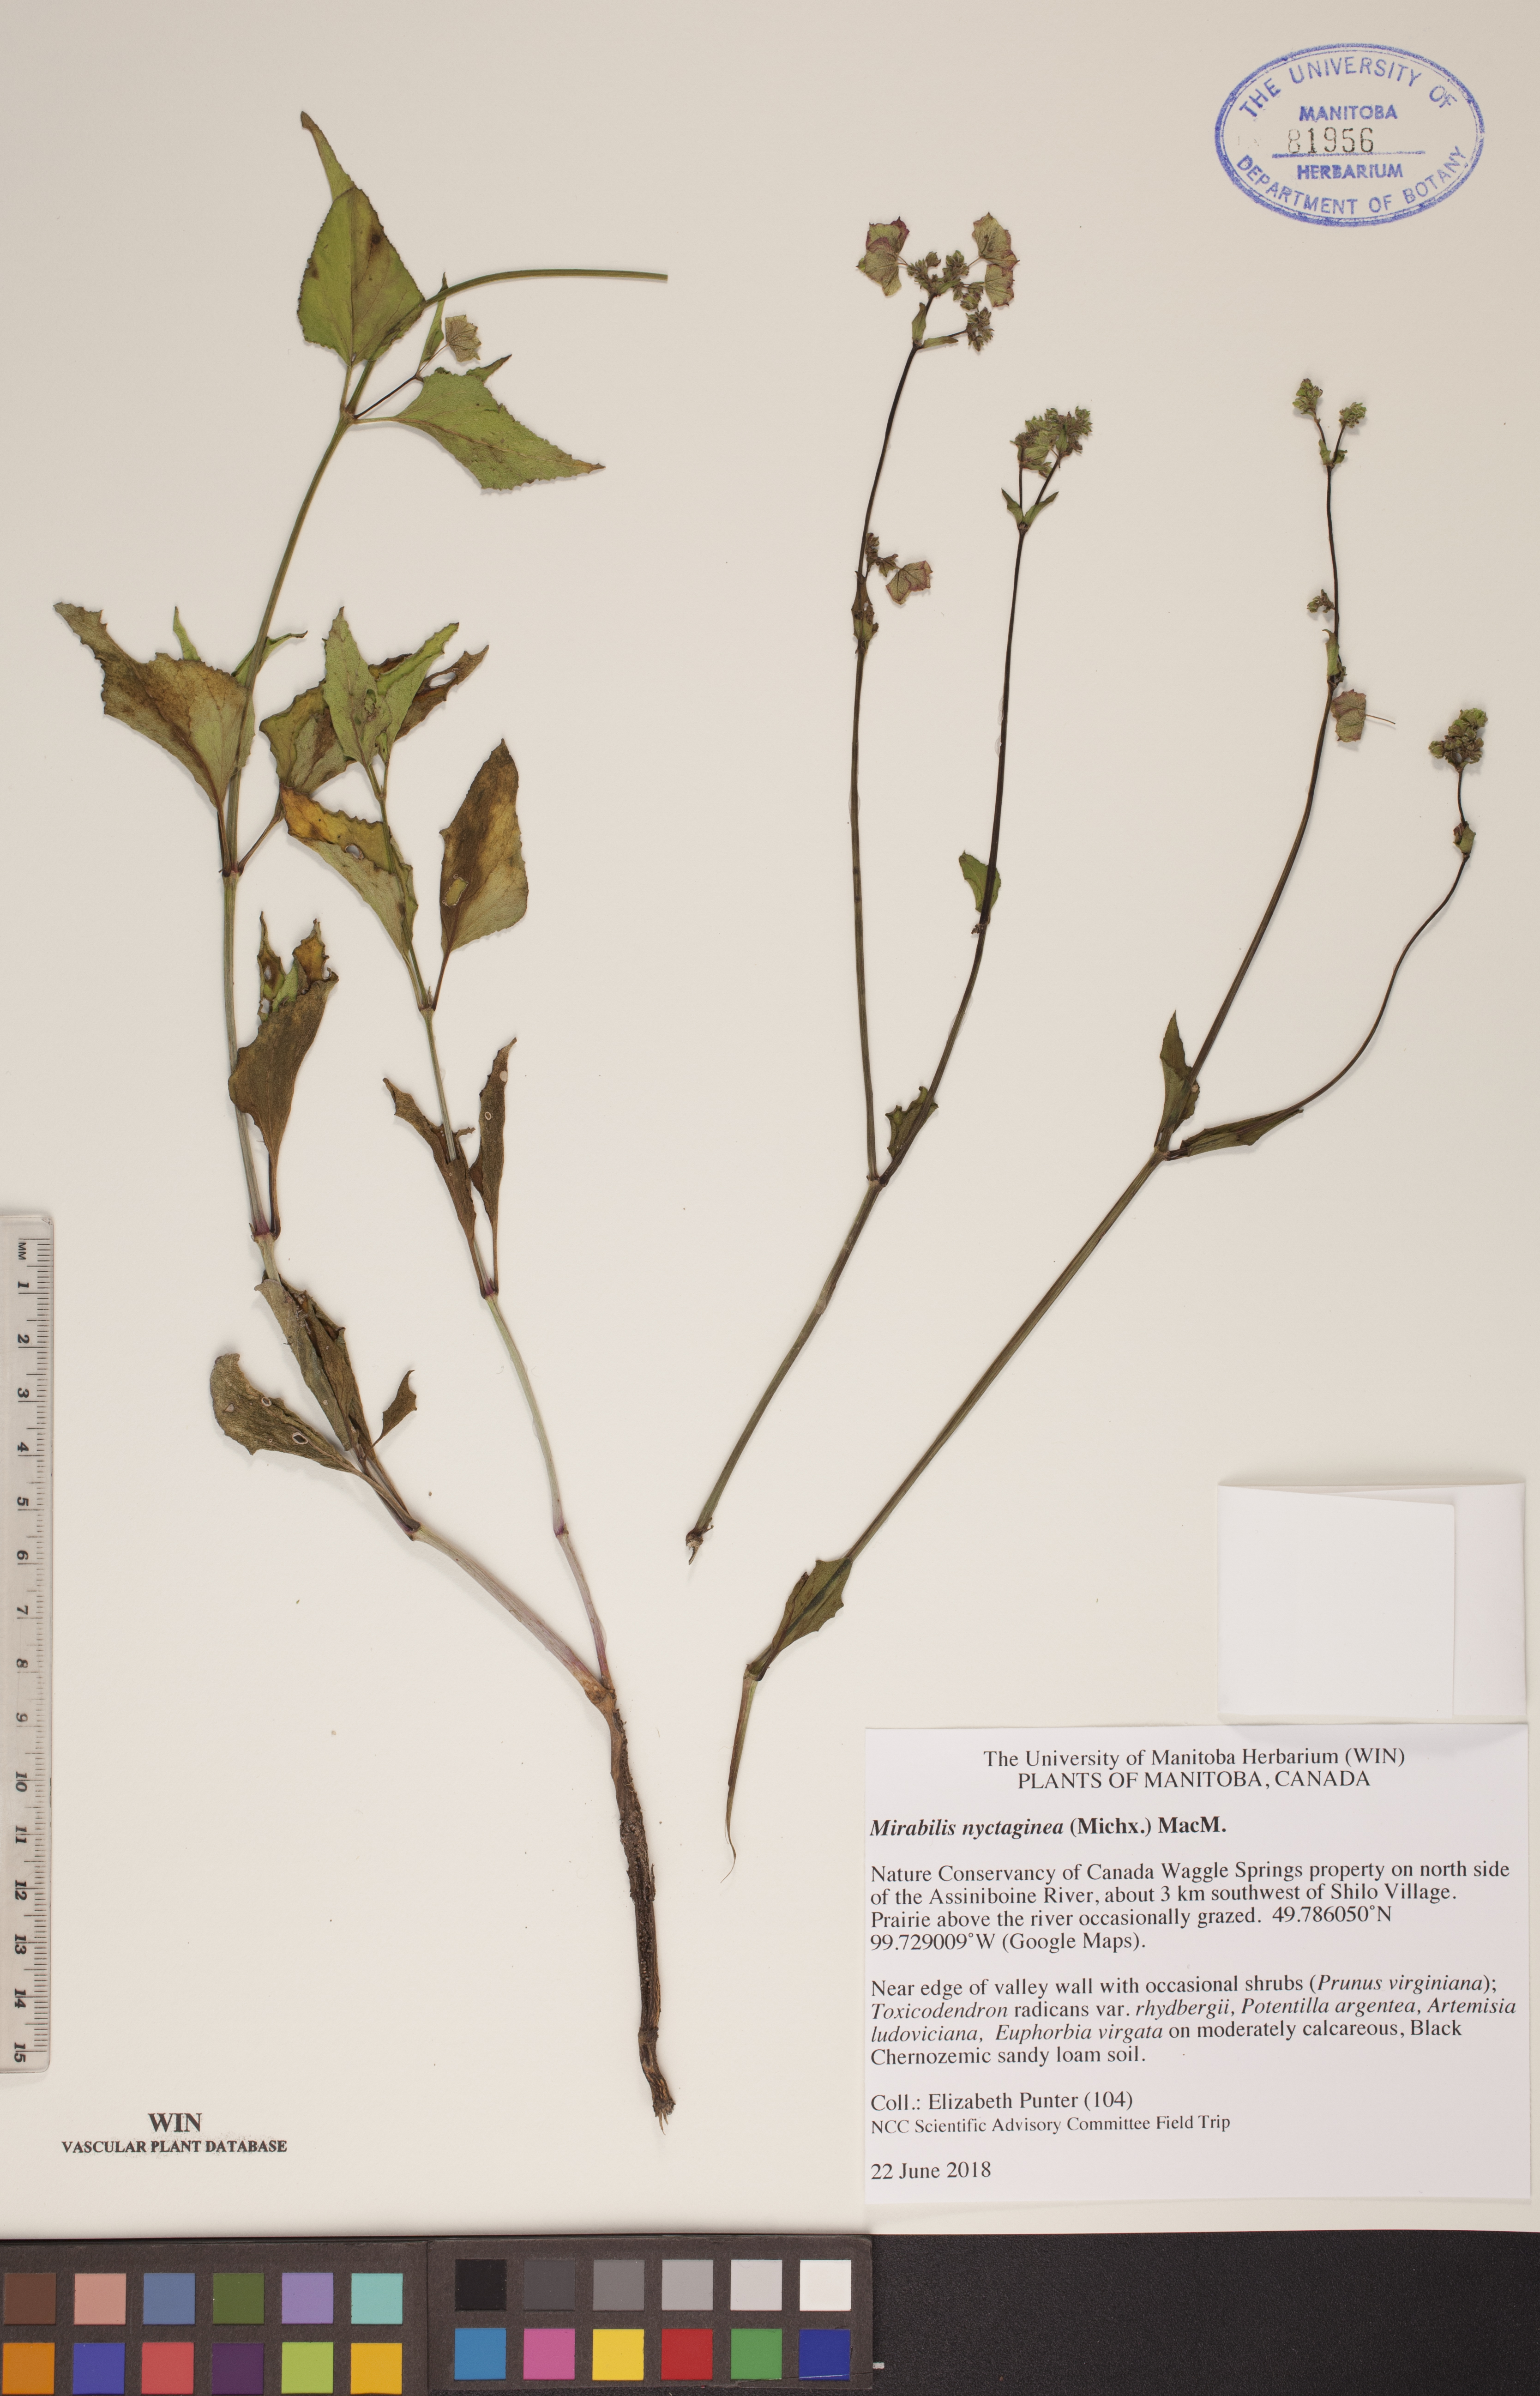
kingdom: Plantae
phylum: Tracheophyta
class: Magnoliopsida
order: Caryophyllales
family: Nyctaginaceae
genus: Mirabilis
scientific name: Mirabilis nyctaginea
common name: Umbrella wort
